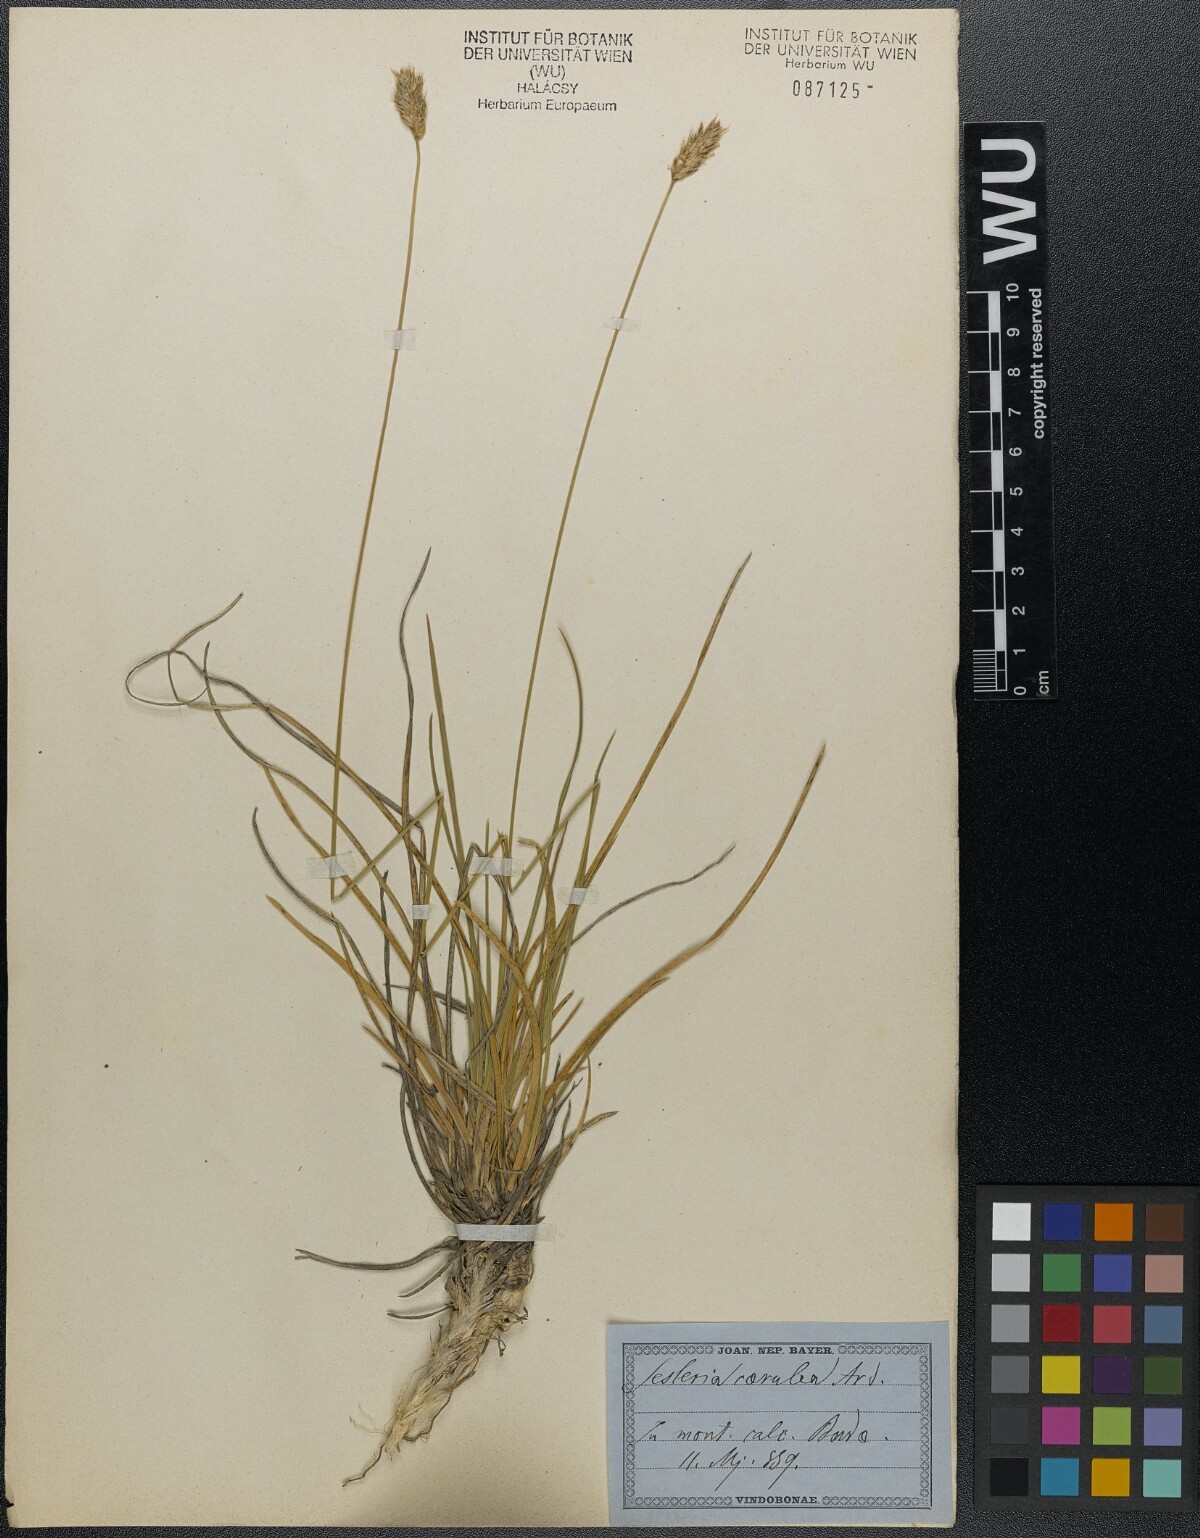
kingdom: Plantae
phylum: Tracheophyta
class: Liliopsida
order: Poales
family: Poaceae
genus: Sesleria
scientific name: Sesleria sadleriana
